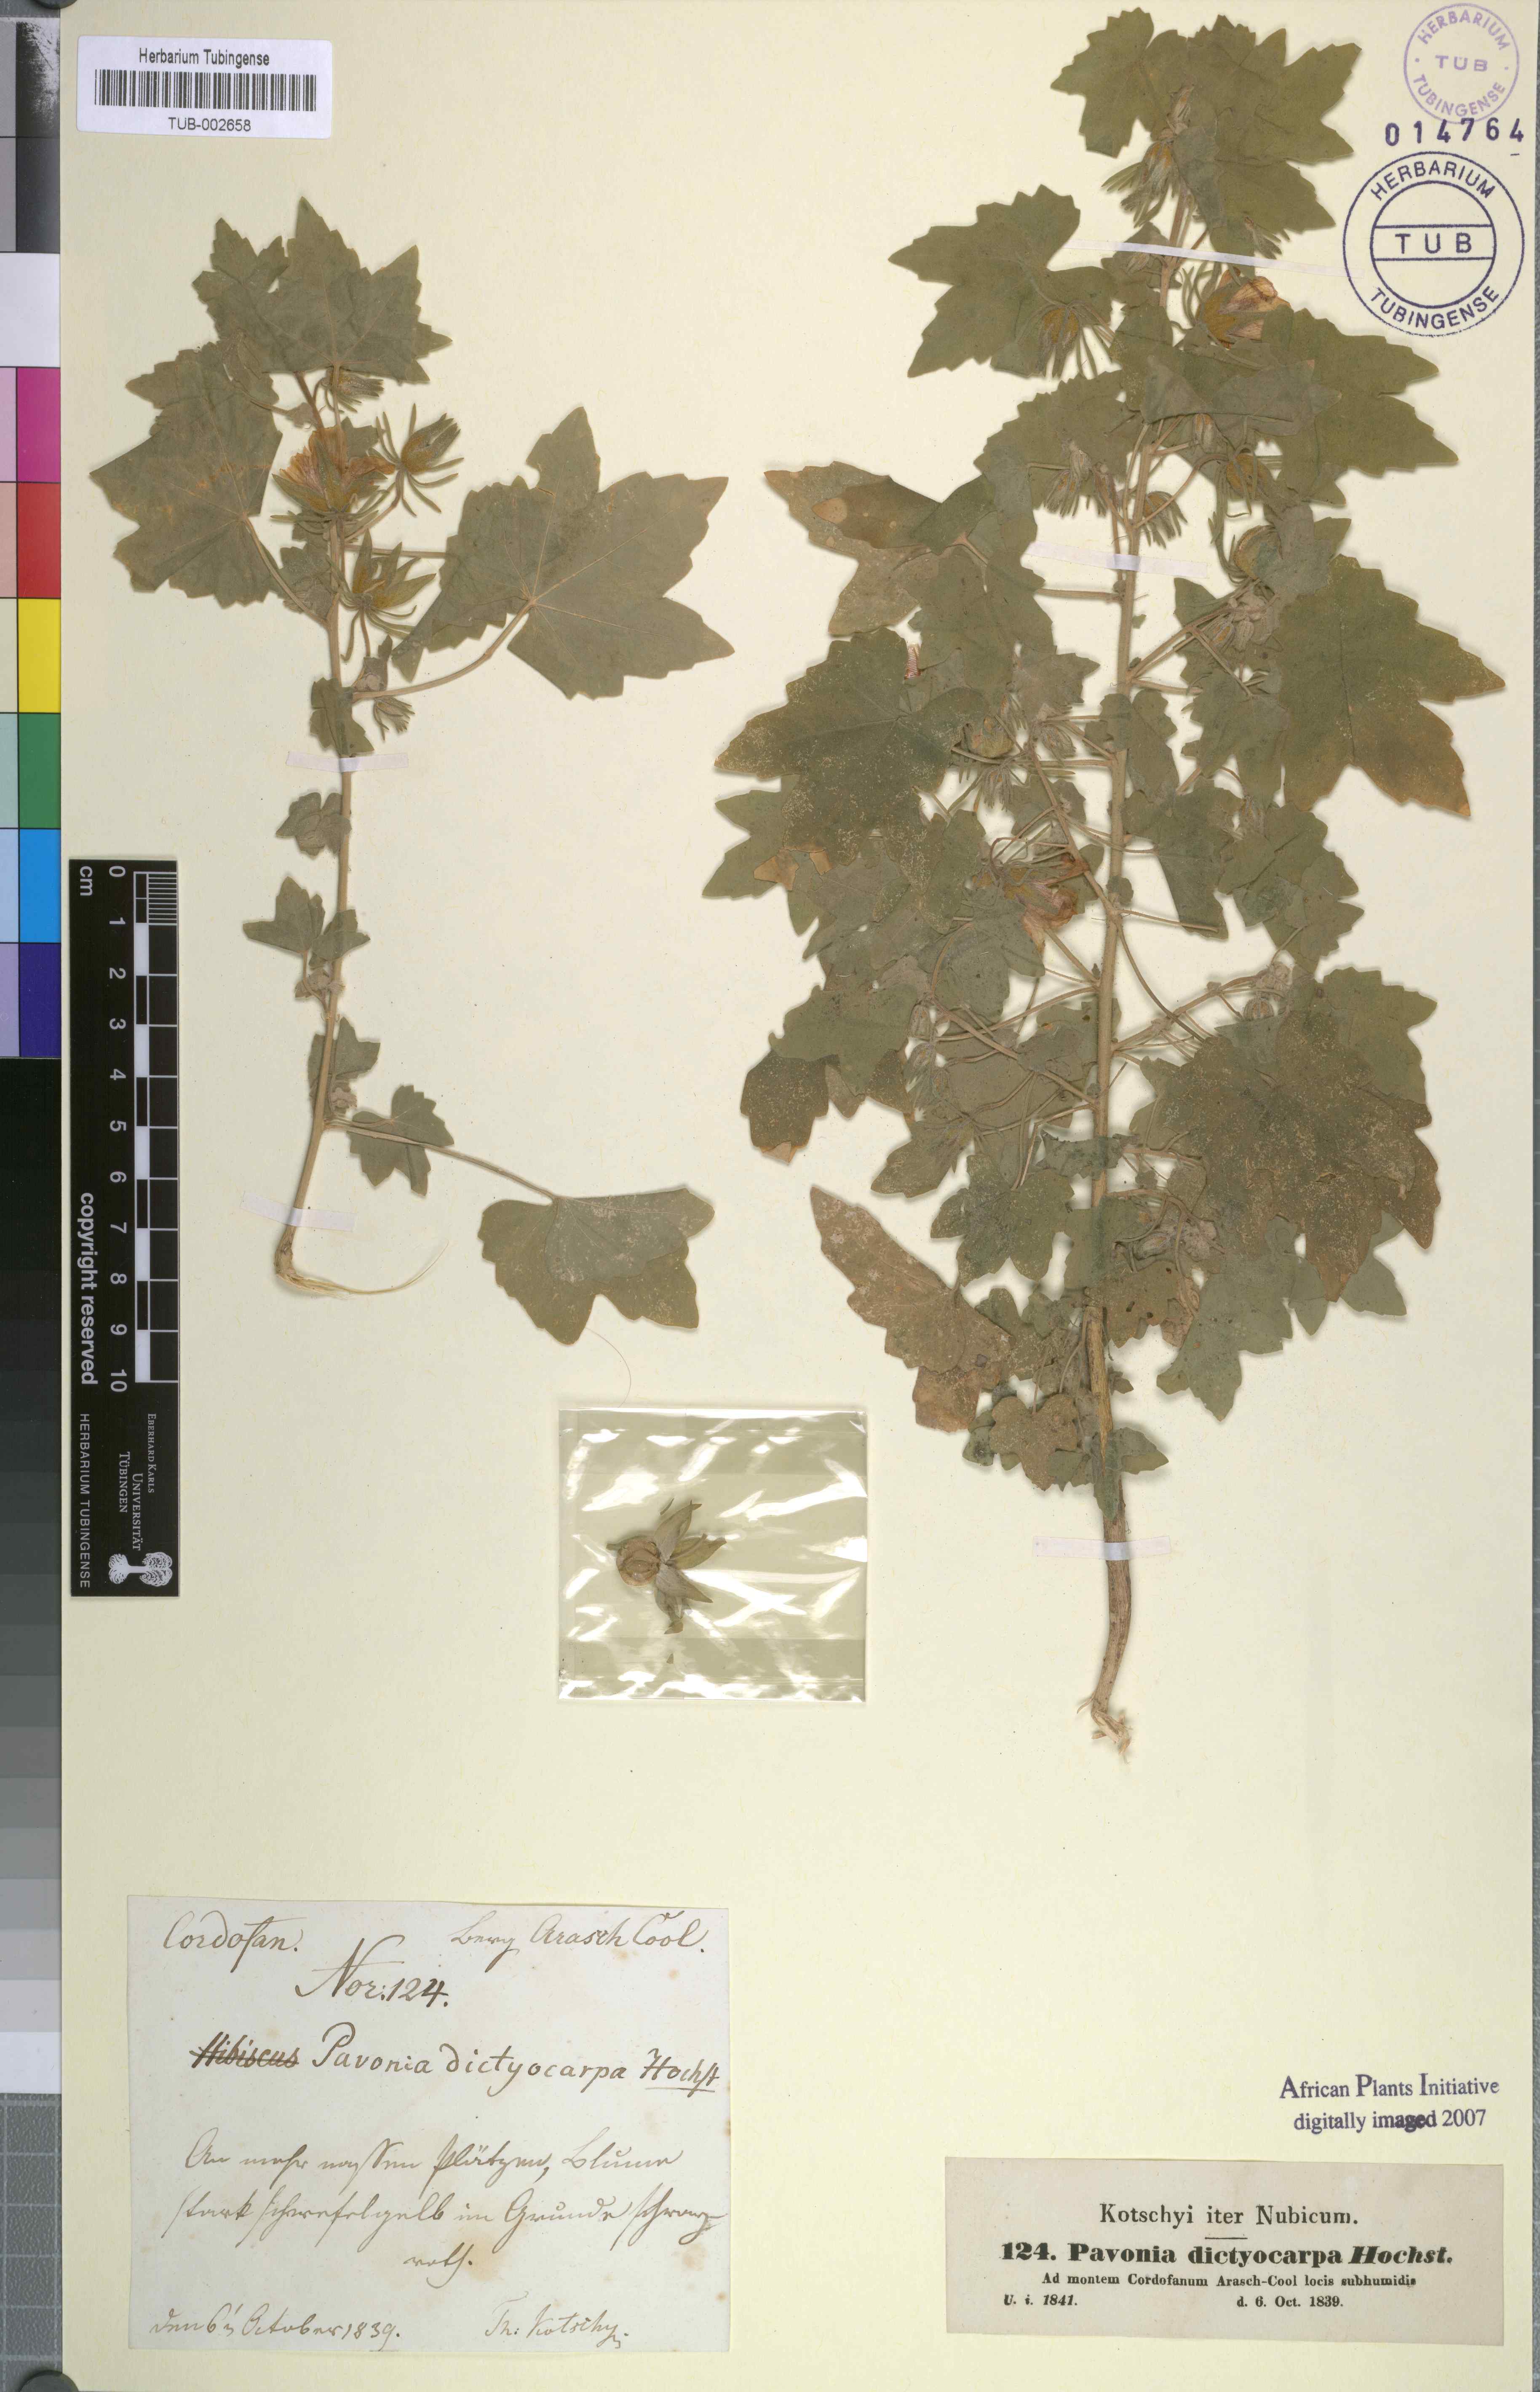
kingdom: Plantae
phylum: Tracheophyta
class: Magnoliopsida
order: Malvales
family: Malvaceae
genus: Roifia
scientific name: Roifia dictyocarpa
